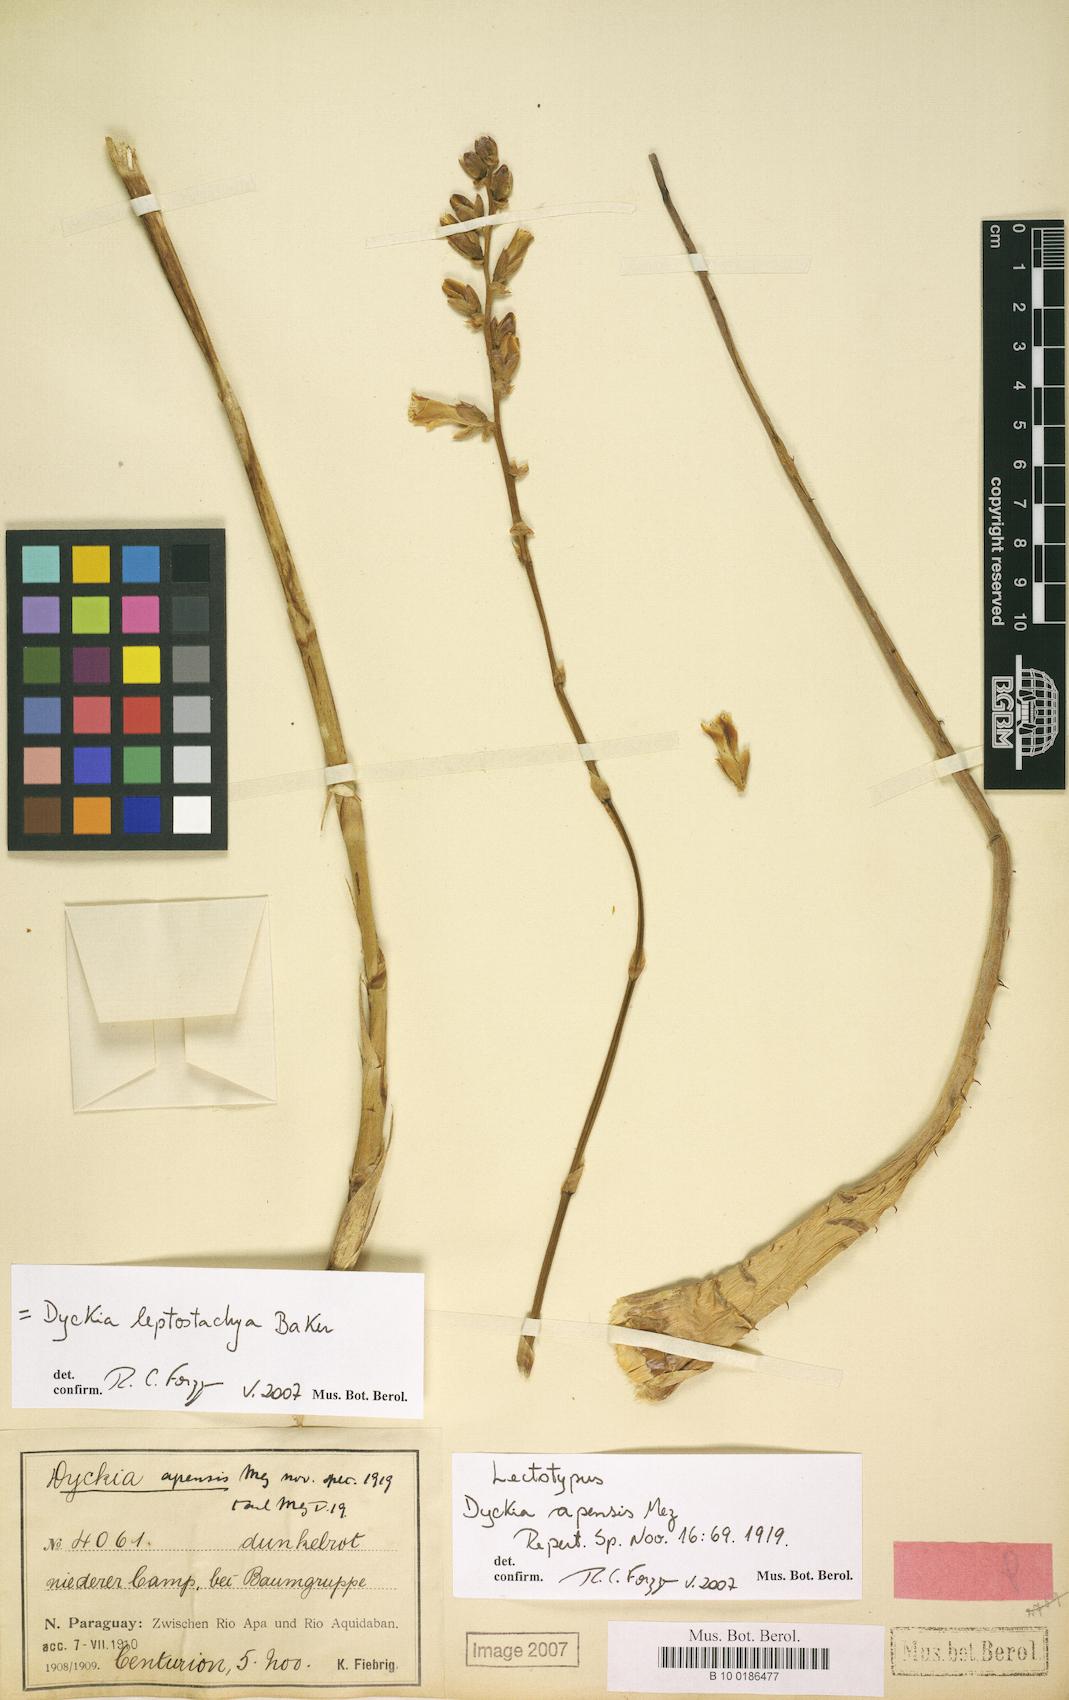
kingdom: Plantae
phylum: Tracheophyta
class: Liliopsida
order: Poales
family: Bromeliaceae
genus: Dyckia
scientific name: Dyckia leptostachya
